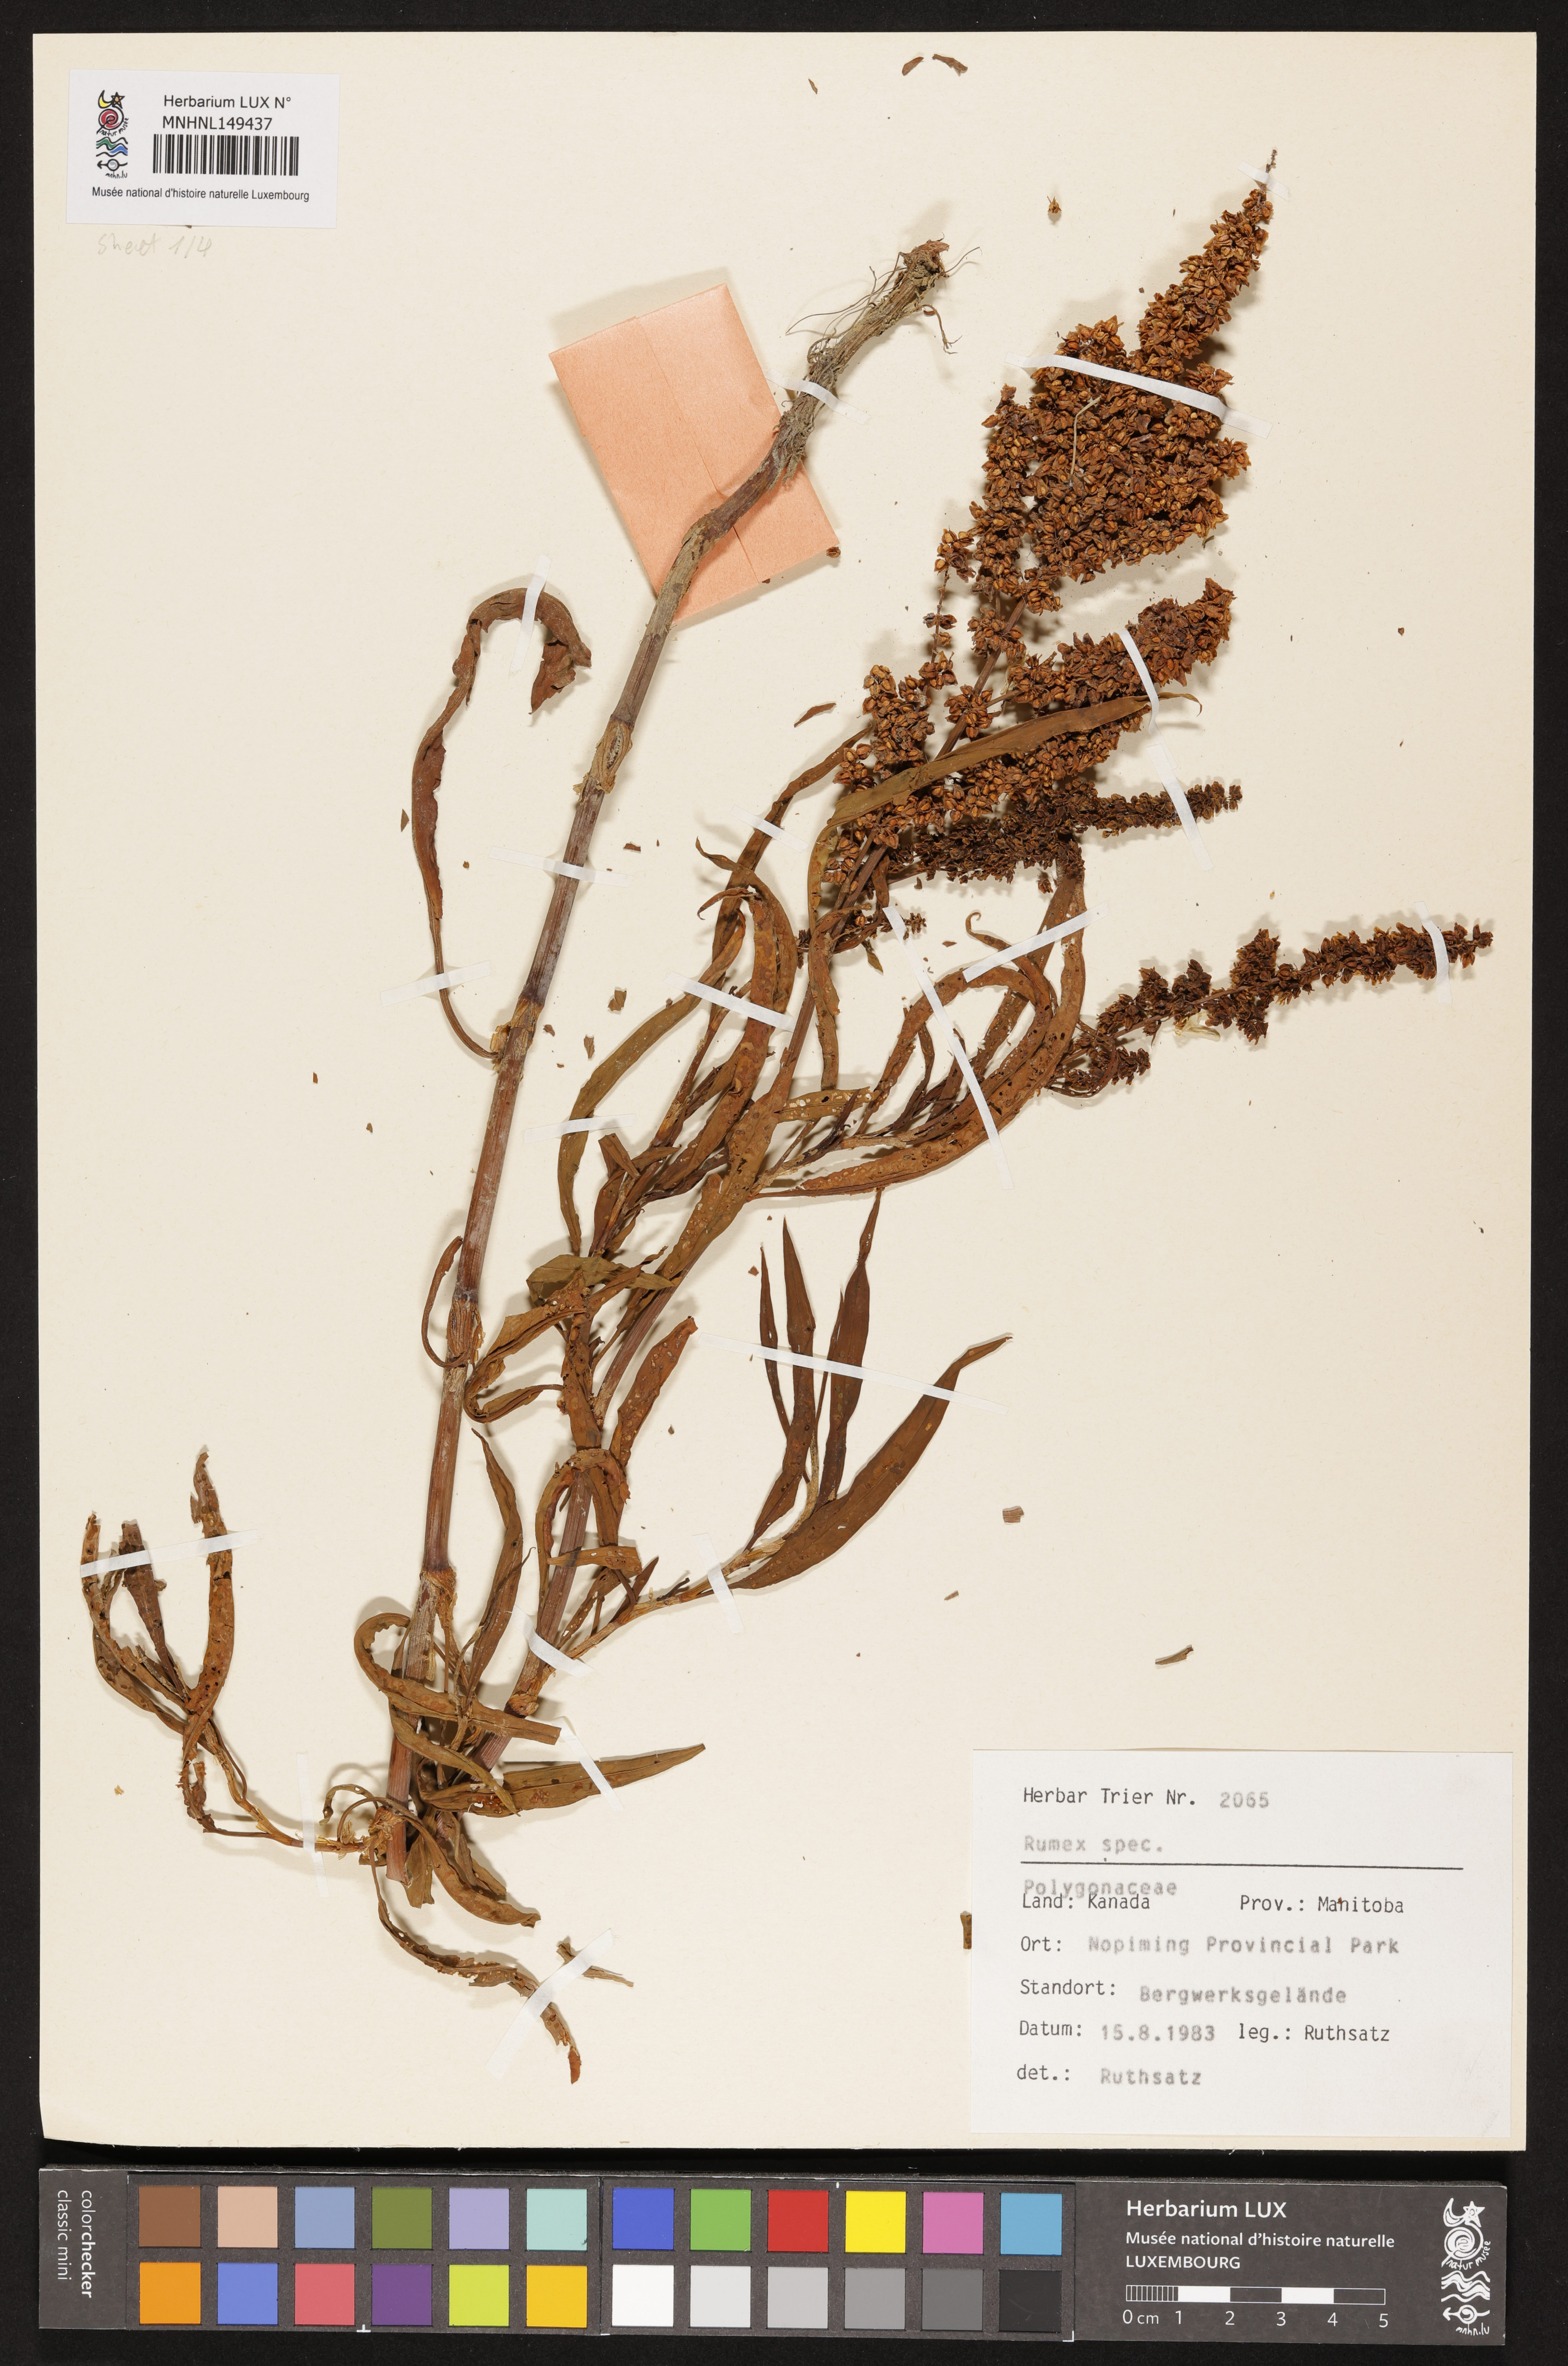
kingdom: Plantae
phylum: Tracheophyta
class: Magnoliopsida
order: Caryophyllales
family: Polygonaceae
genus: Rumex
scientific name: Rumex
